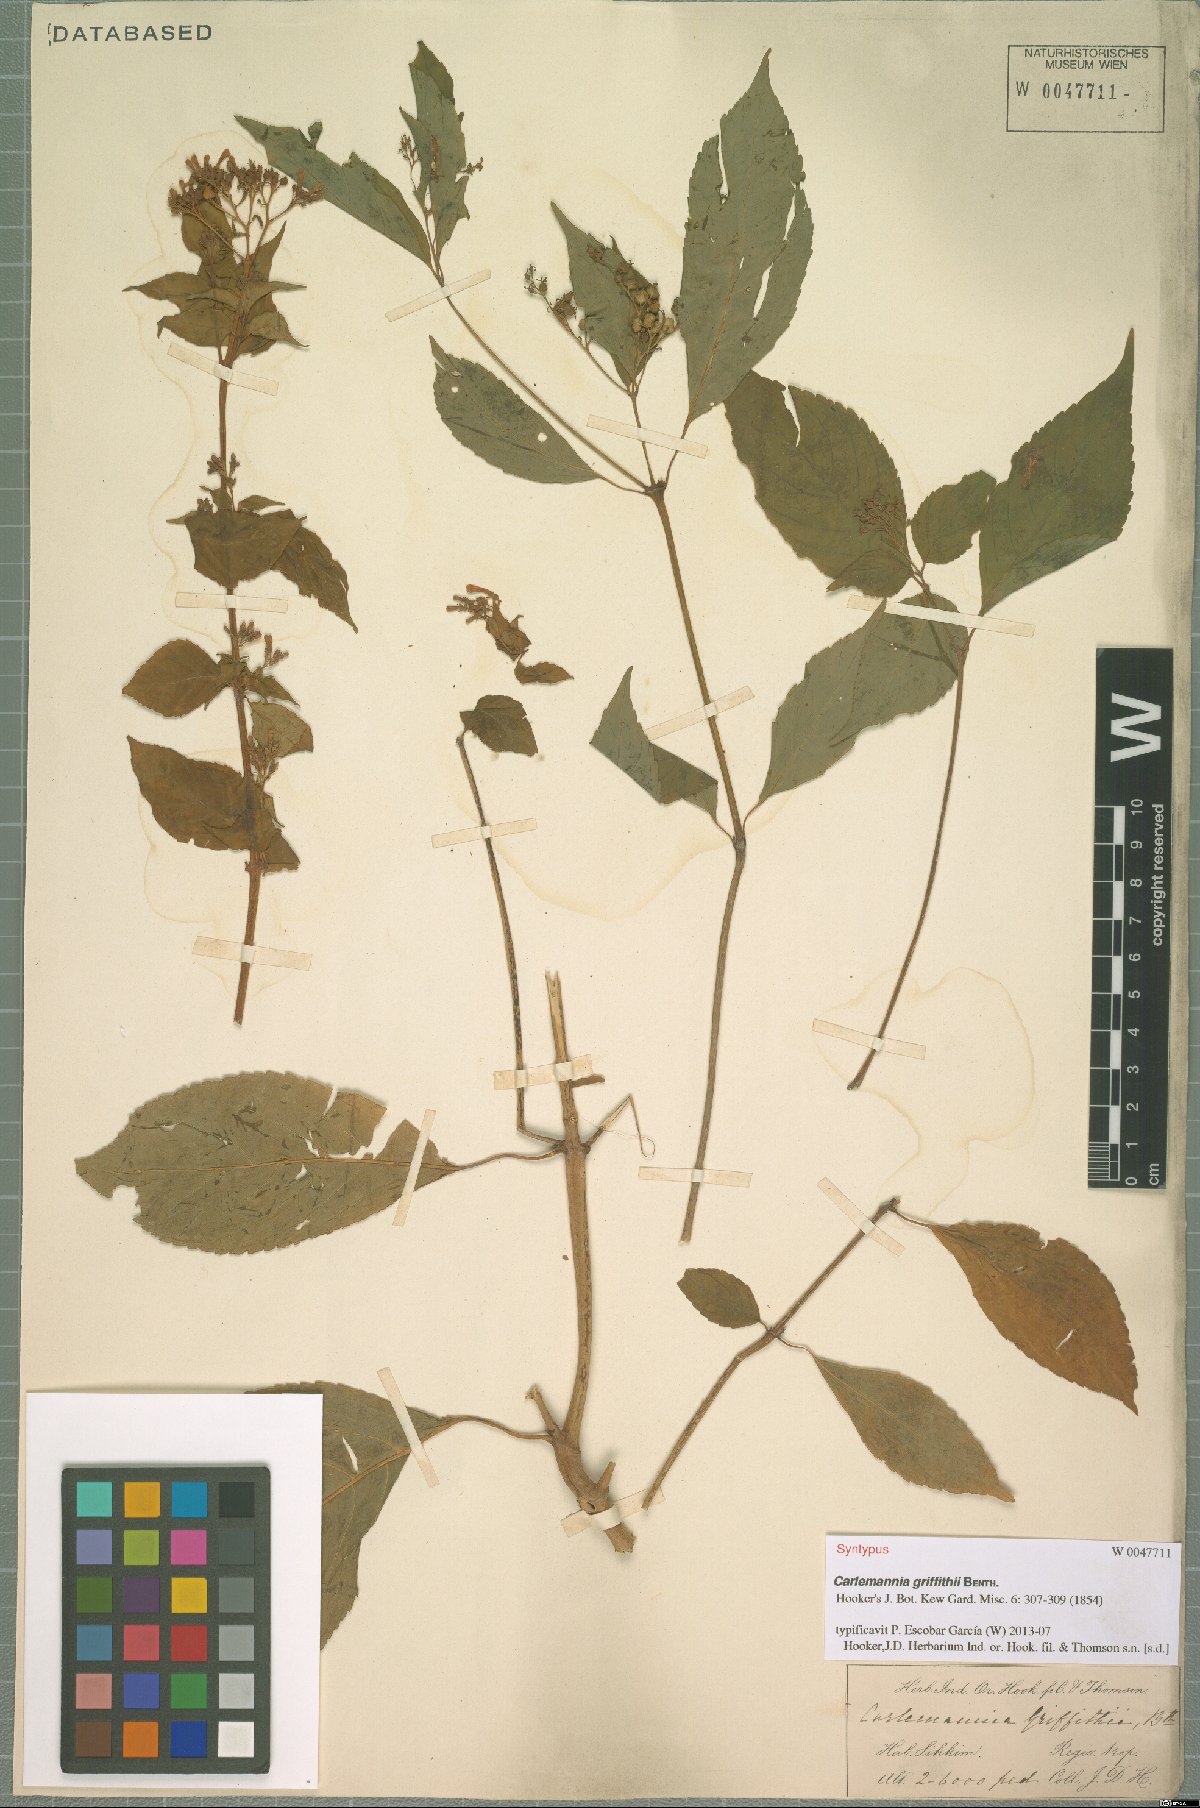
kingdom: Plantae
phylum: Tracheophyta
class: Magnoliopsida
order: Lamiales
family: Carlemanniaceae
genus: Carlemannia
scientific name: Carlemannia griffithii
